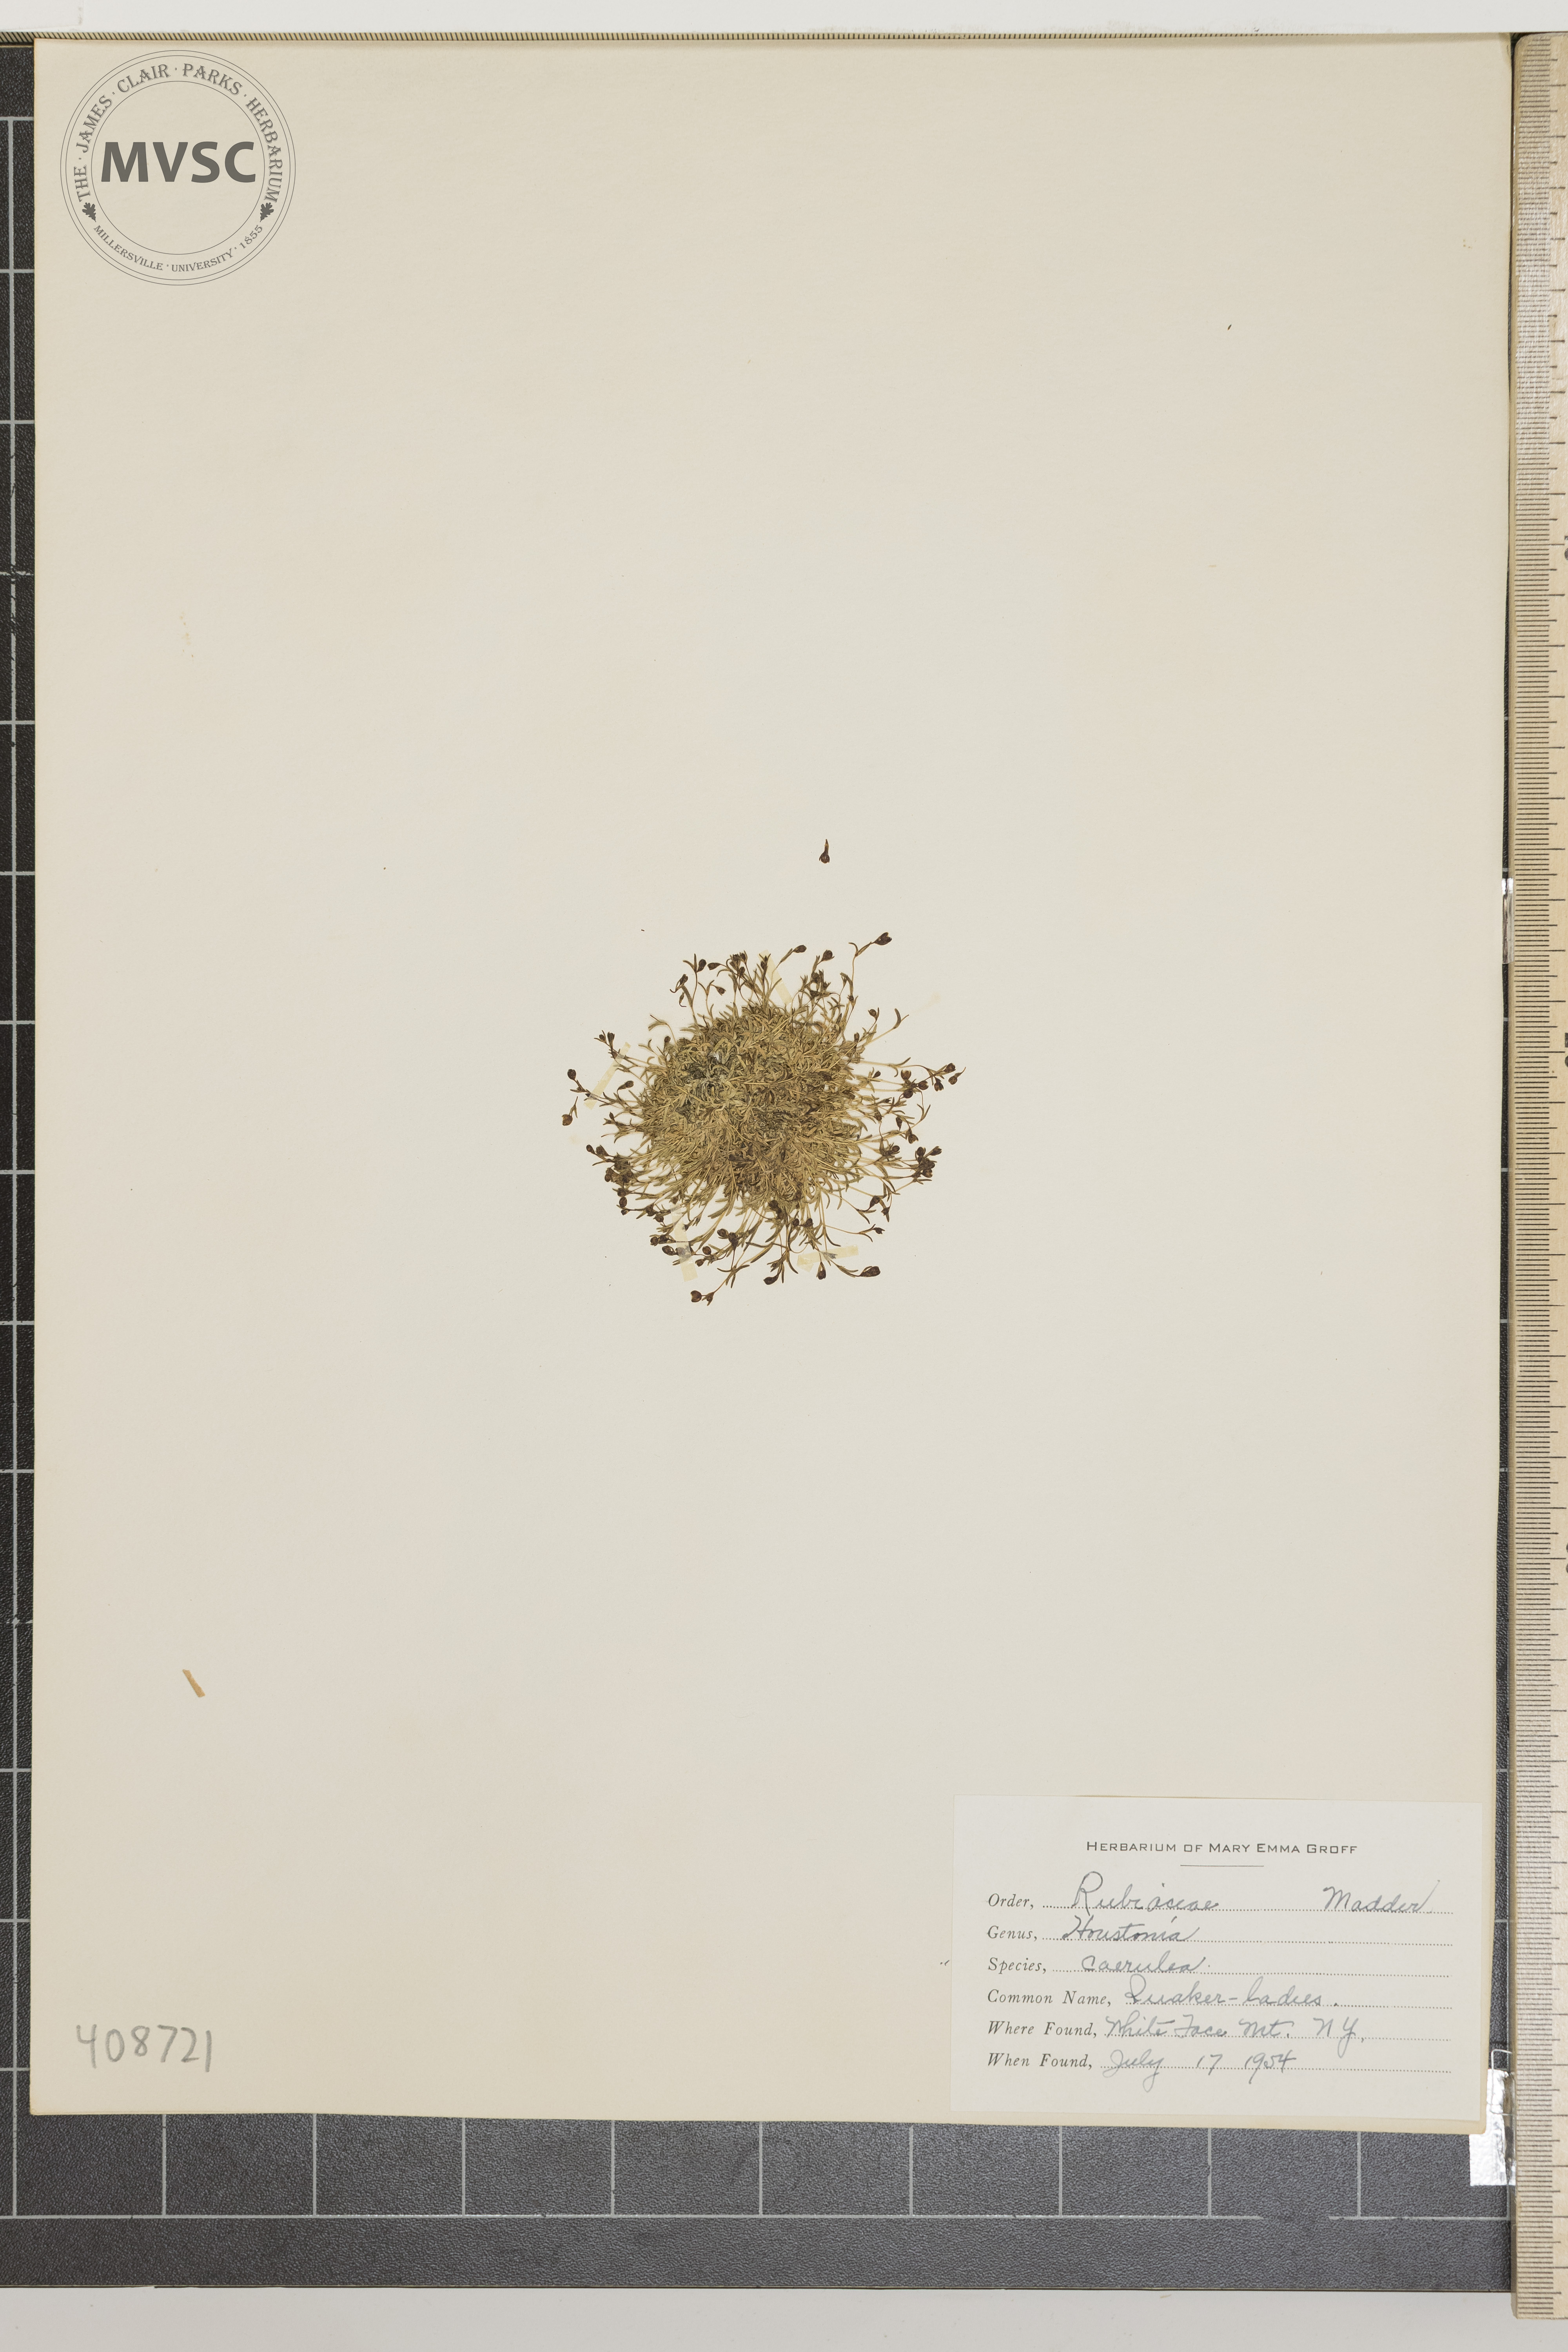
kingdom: Plantae
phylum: Tracheophyta
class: Magnoliopsida
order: Gentianales
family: Rubiaceae
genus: Houstonia
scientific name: Houstonia caerulea
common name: Quaker-ladies
